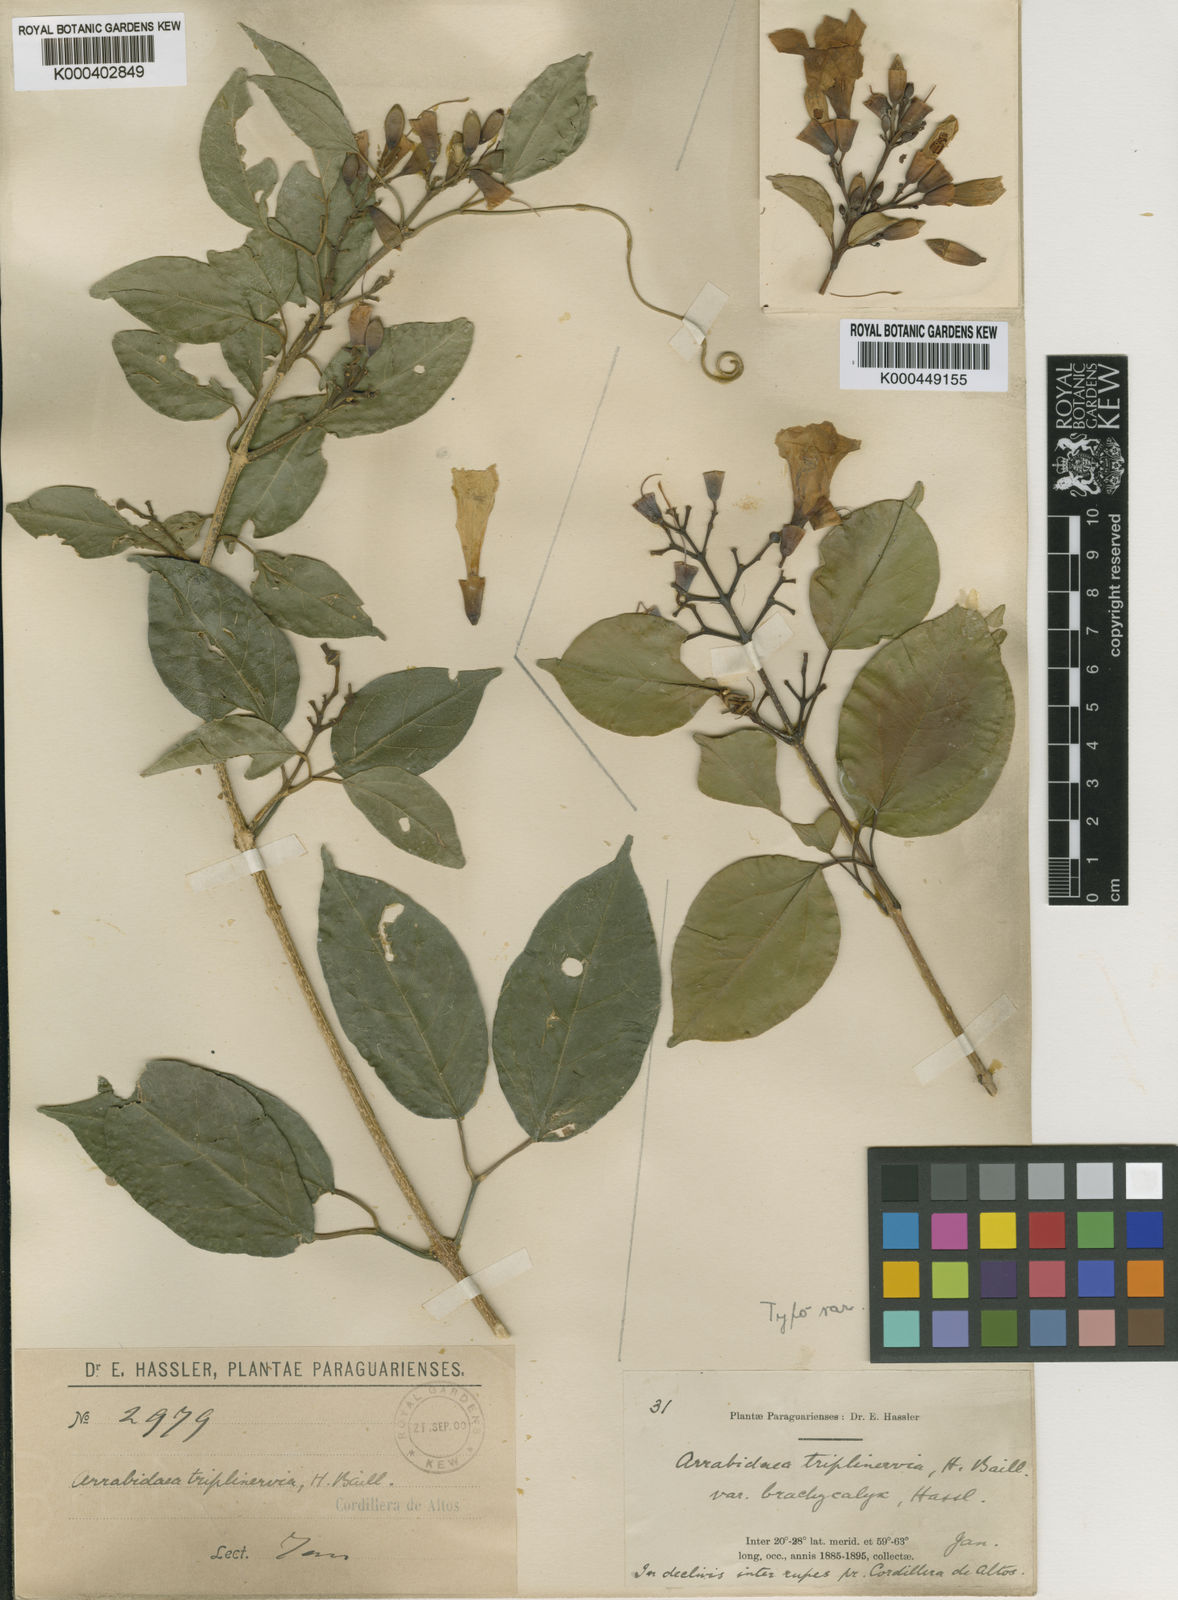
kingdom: Plantae
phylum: Tracheophyta
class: Magnoliopsida
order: Lamiales
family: Bignoniaceae
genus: Fridericia
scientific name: Fridericia triplinervia
